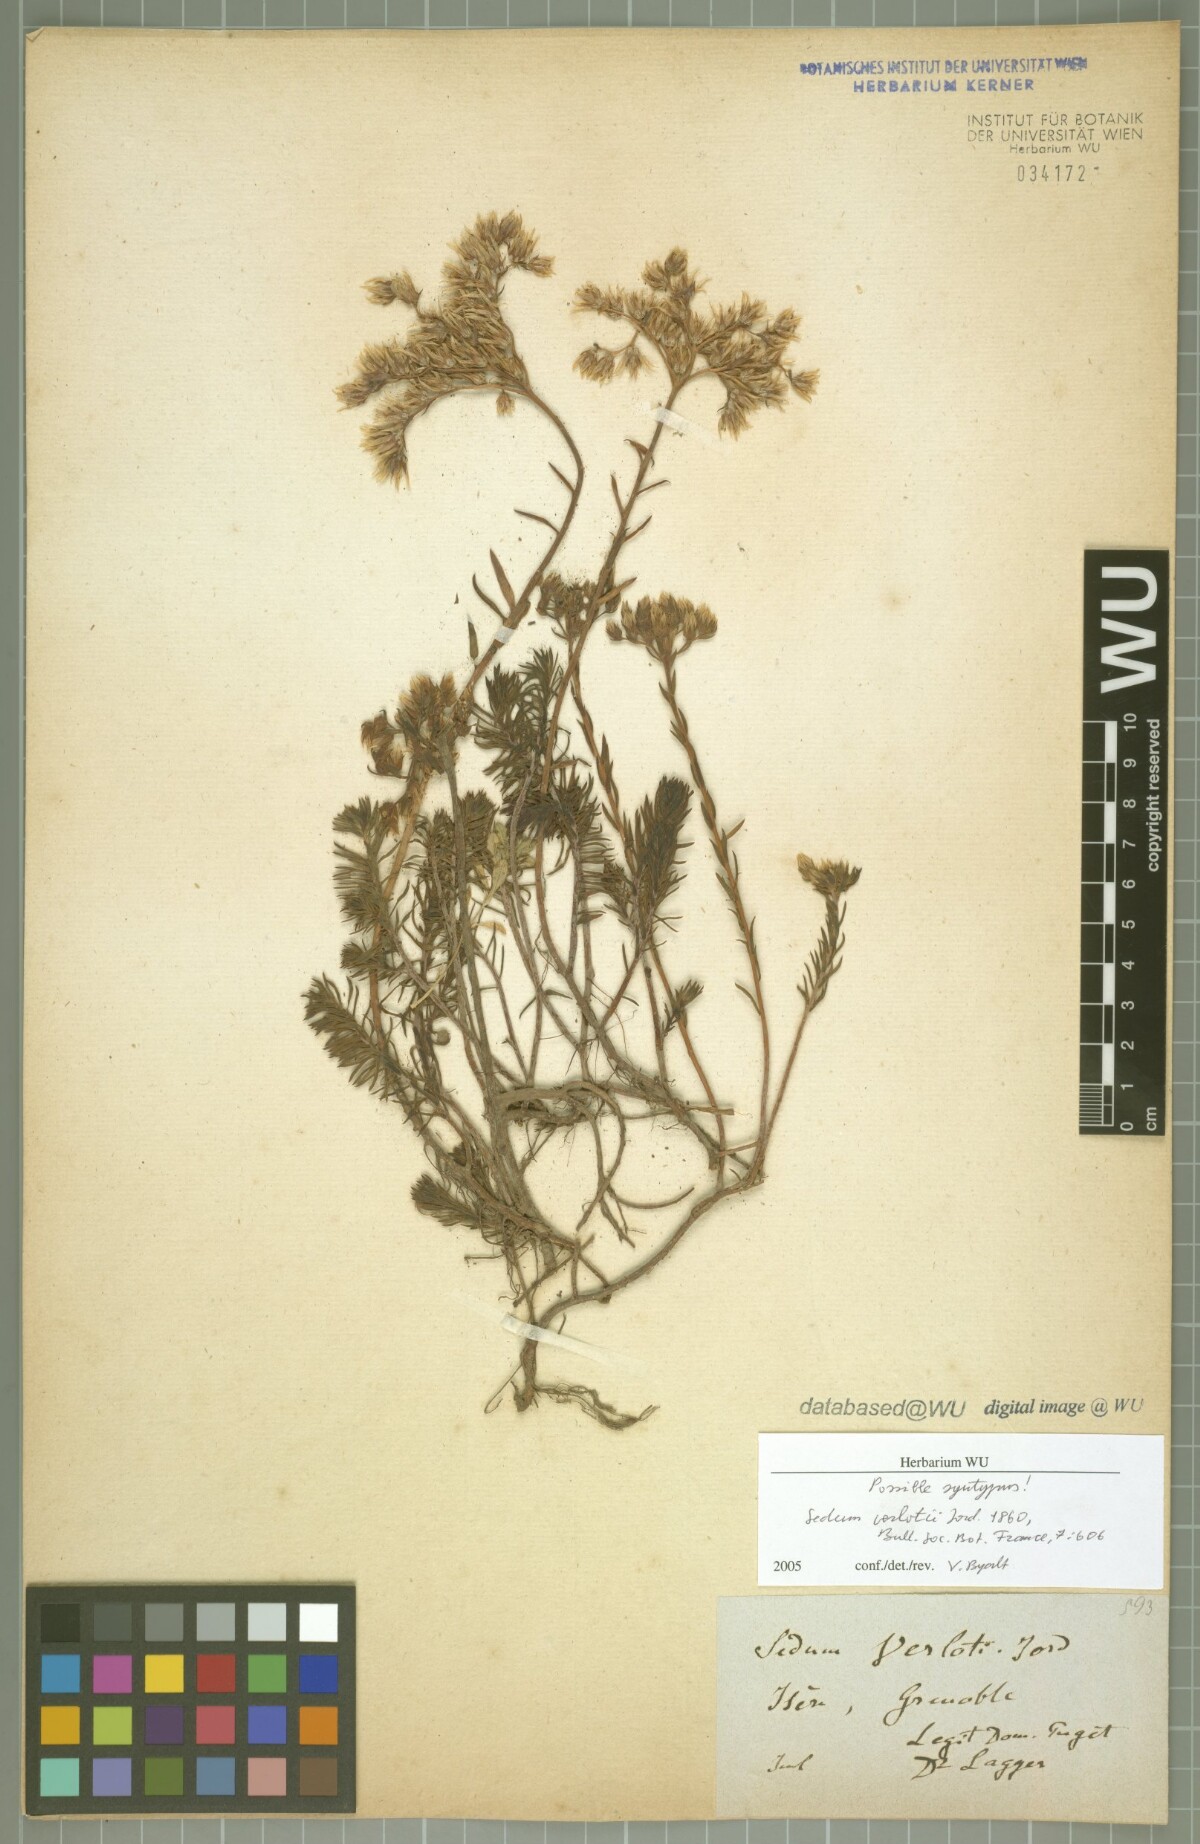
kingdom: Plantae
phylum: Tracheophyta
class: Magnoliopsida
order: Saxifragales
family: Crassulaceae
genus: Petrosedum
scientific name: Petrosedum ochroleucum
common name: European stonecrop
